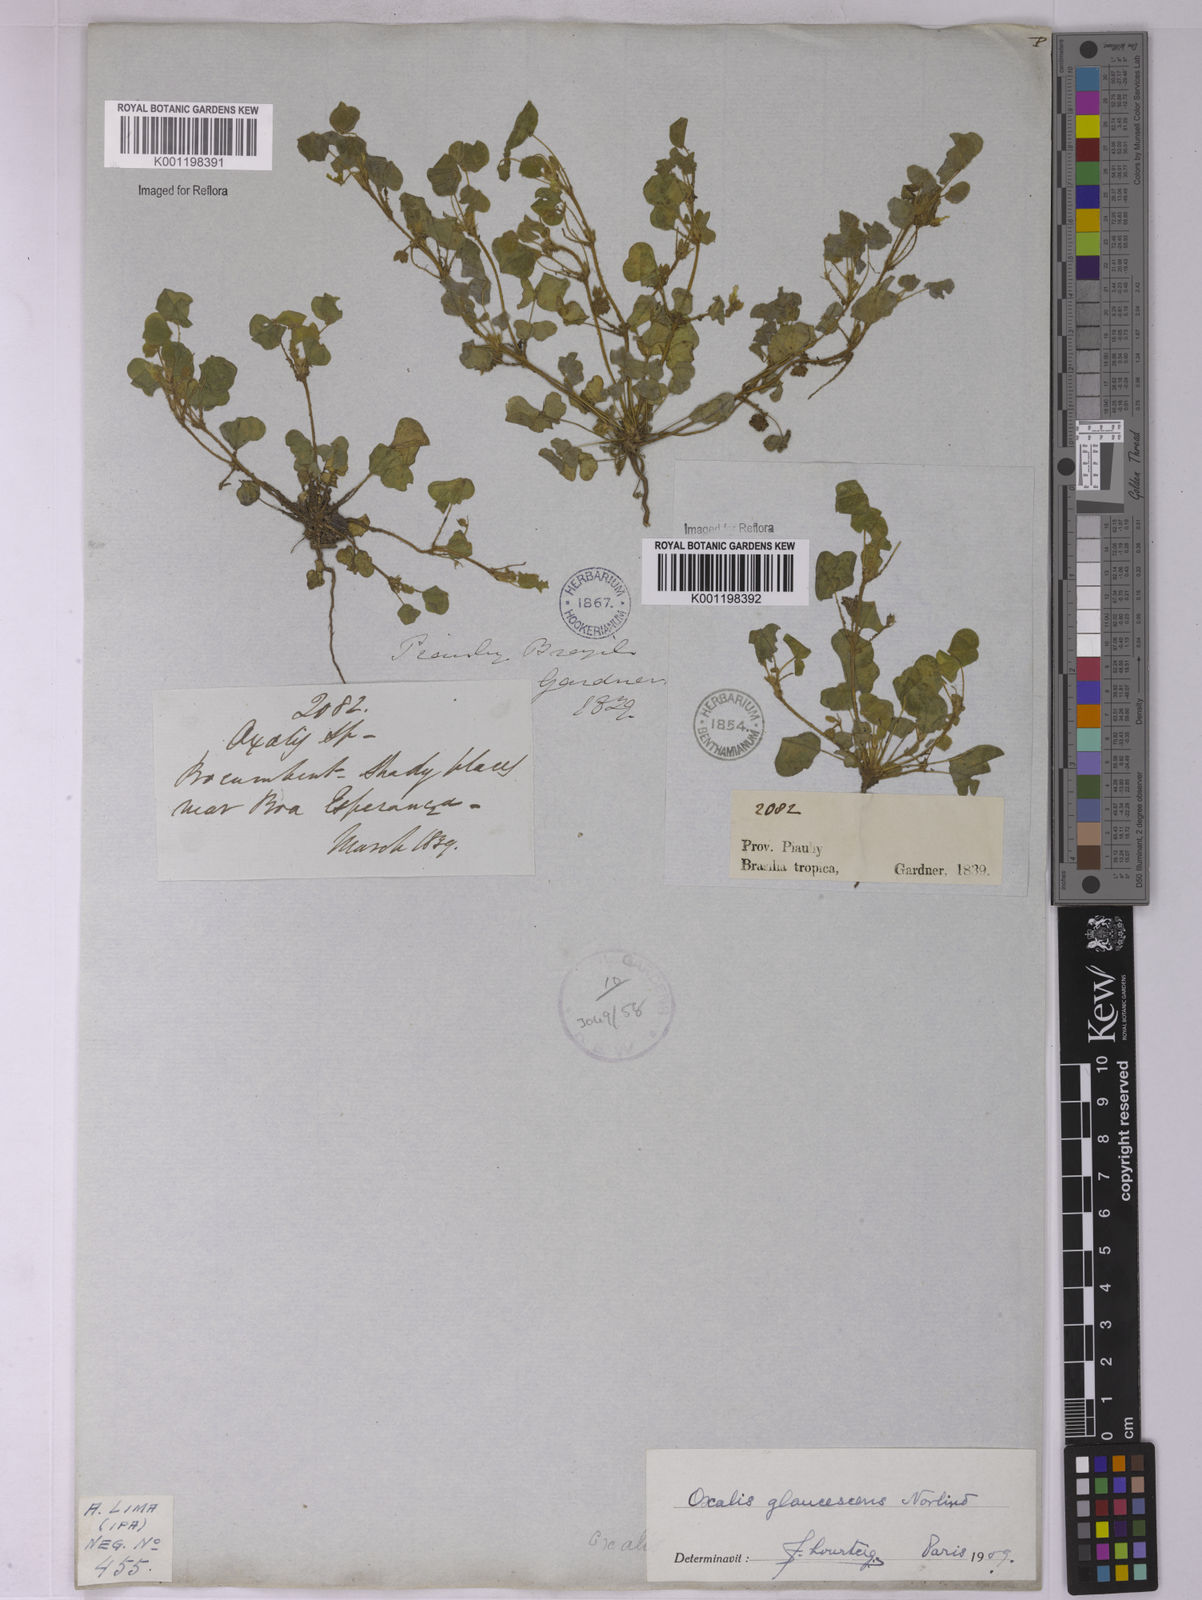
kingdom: Plantae
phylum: Tracheophyta
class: Magnoliopsida
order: Oxalidales
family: Oxalidaceae
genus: Oxalis
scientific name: Oxalis glaucescens
